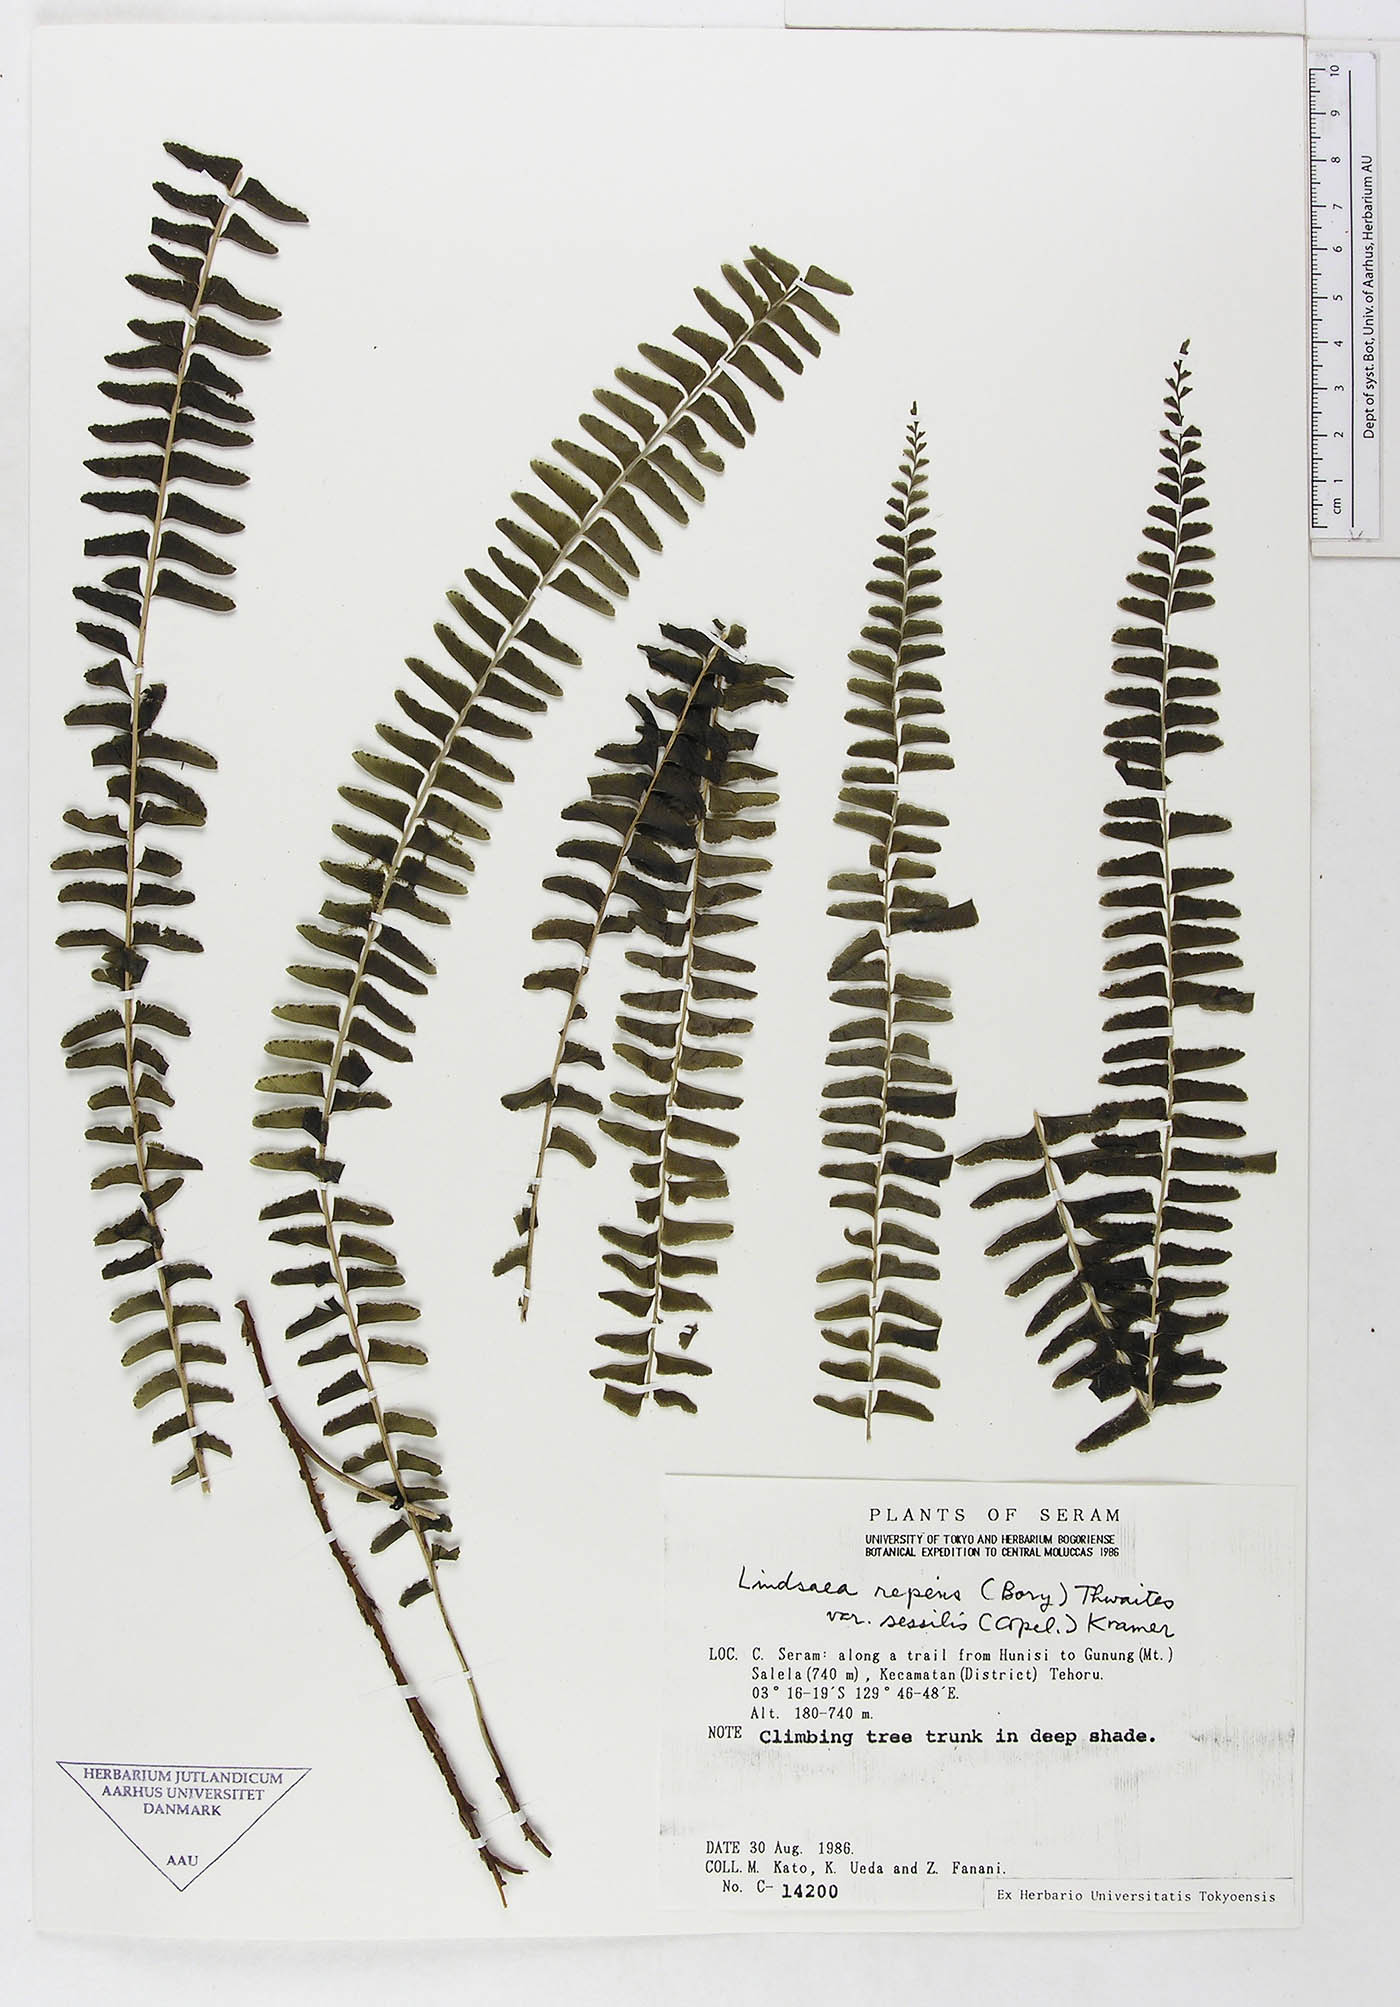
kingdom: Plantae
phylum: Tracheophyta
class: Polypodiopsida
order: Polypodiales
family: Dennstaedtiaceae
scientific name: Dennstaedtiaceae
